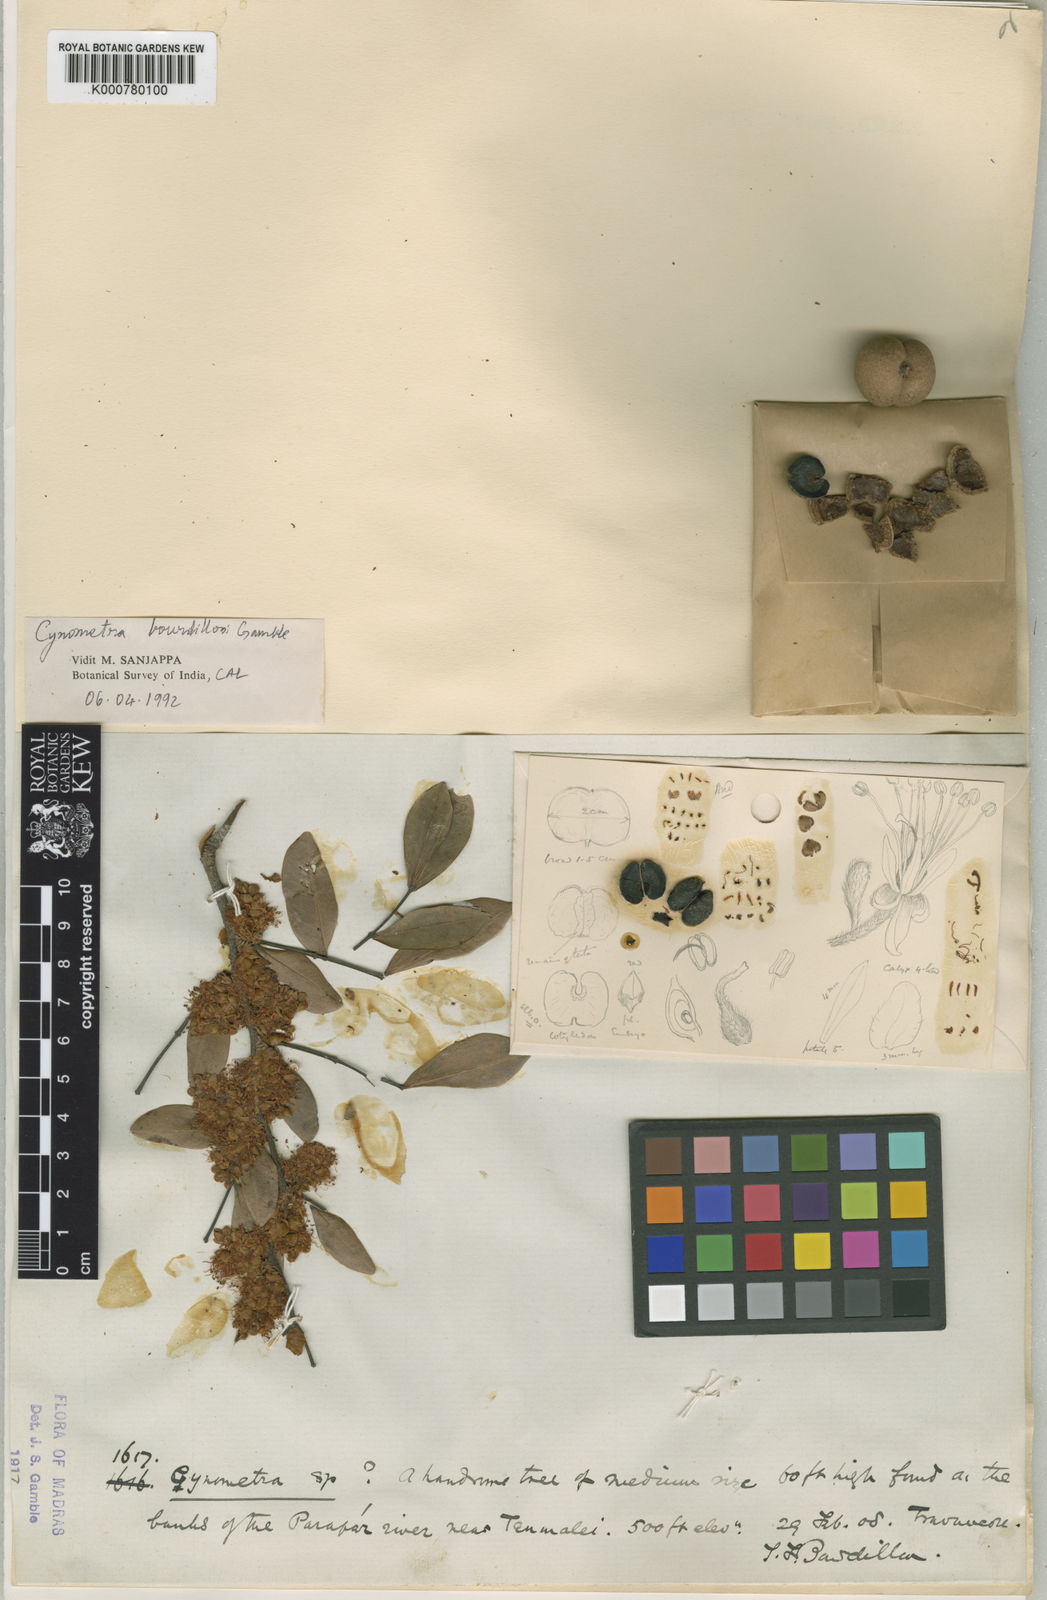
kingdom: Plantae
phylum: Tracheophyta
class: Magnoliopsida
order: Fabales
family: Fabaceae
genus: Cynometra
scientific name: Cynometra bourdillonii
